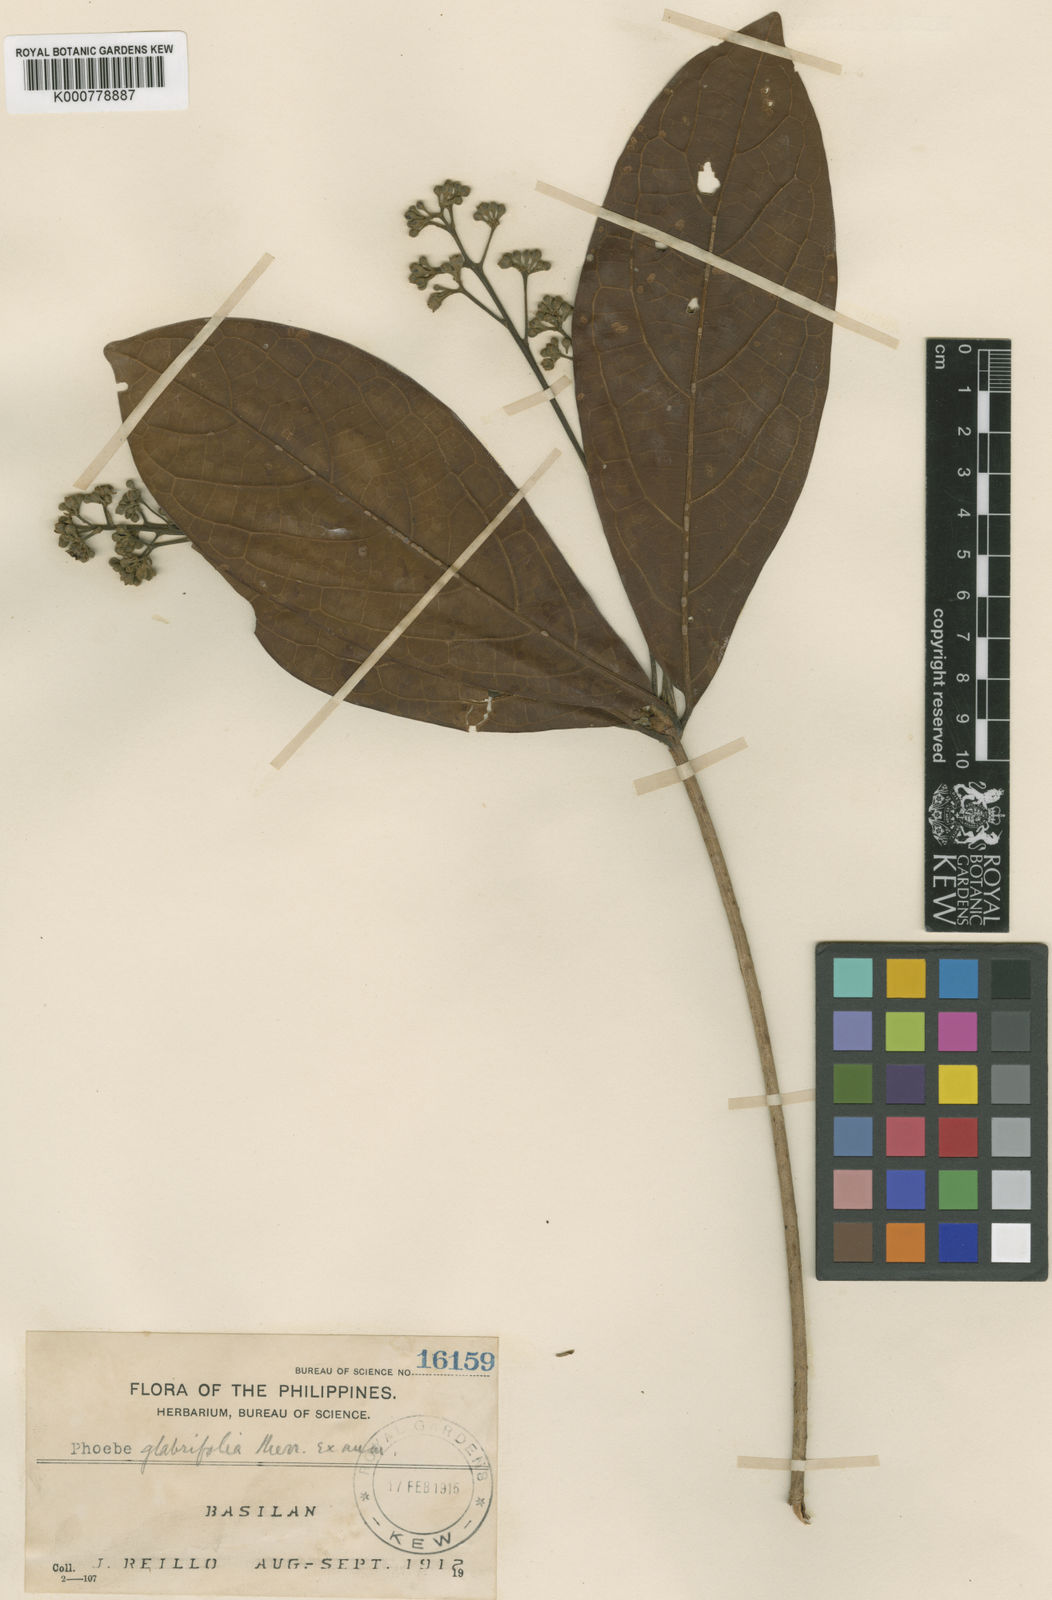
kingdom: Plantae
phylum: Tracheophyta
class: Magnoliopsida
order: Laurales
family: Lauraceae
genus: Phoebe
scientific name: Phoebe
